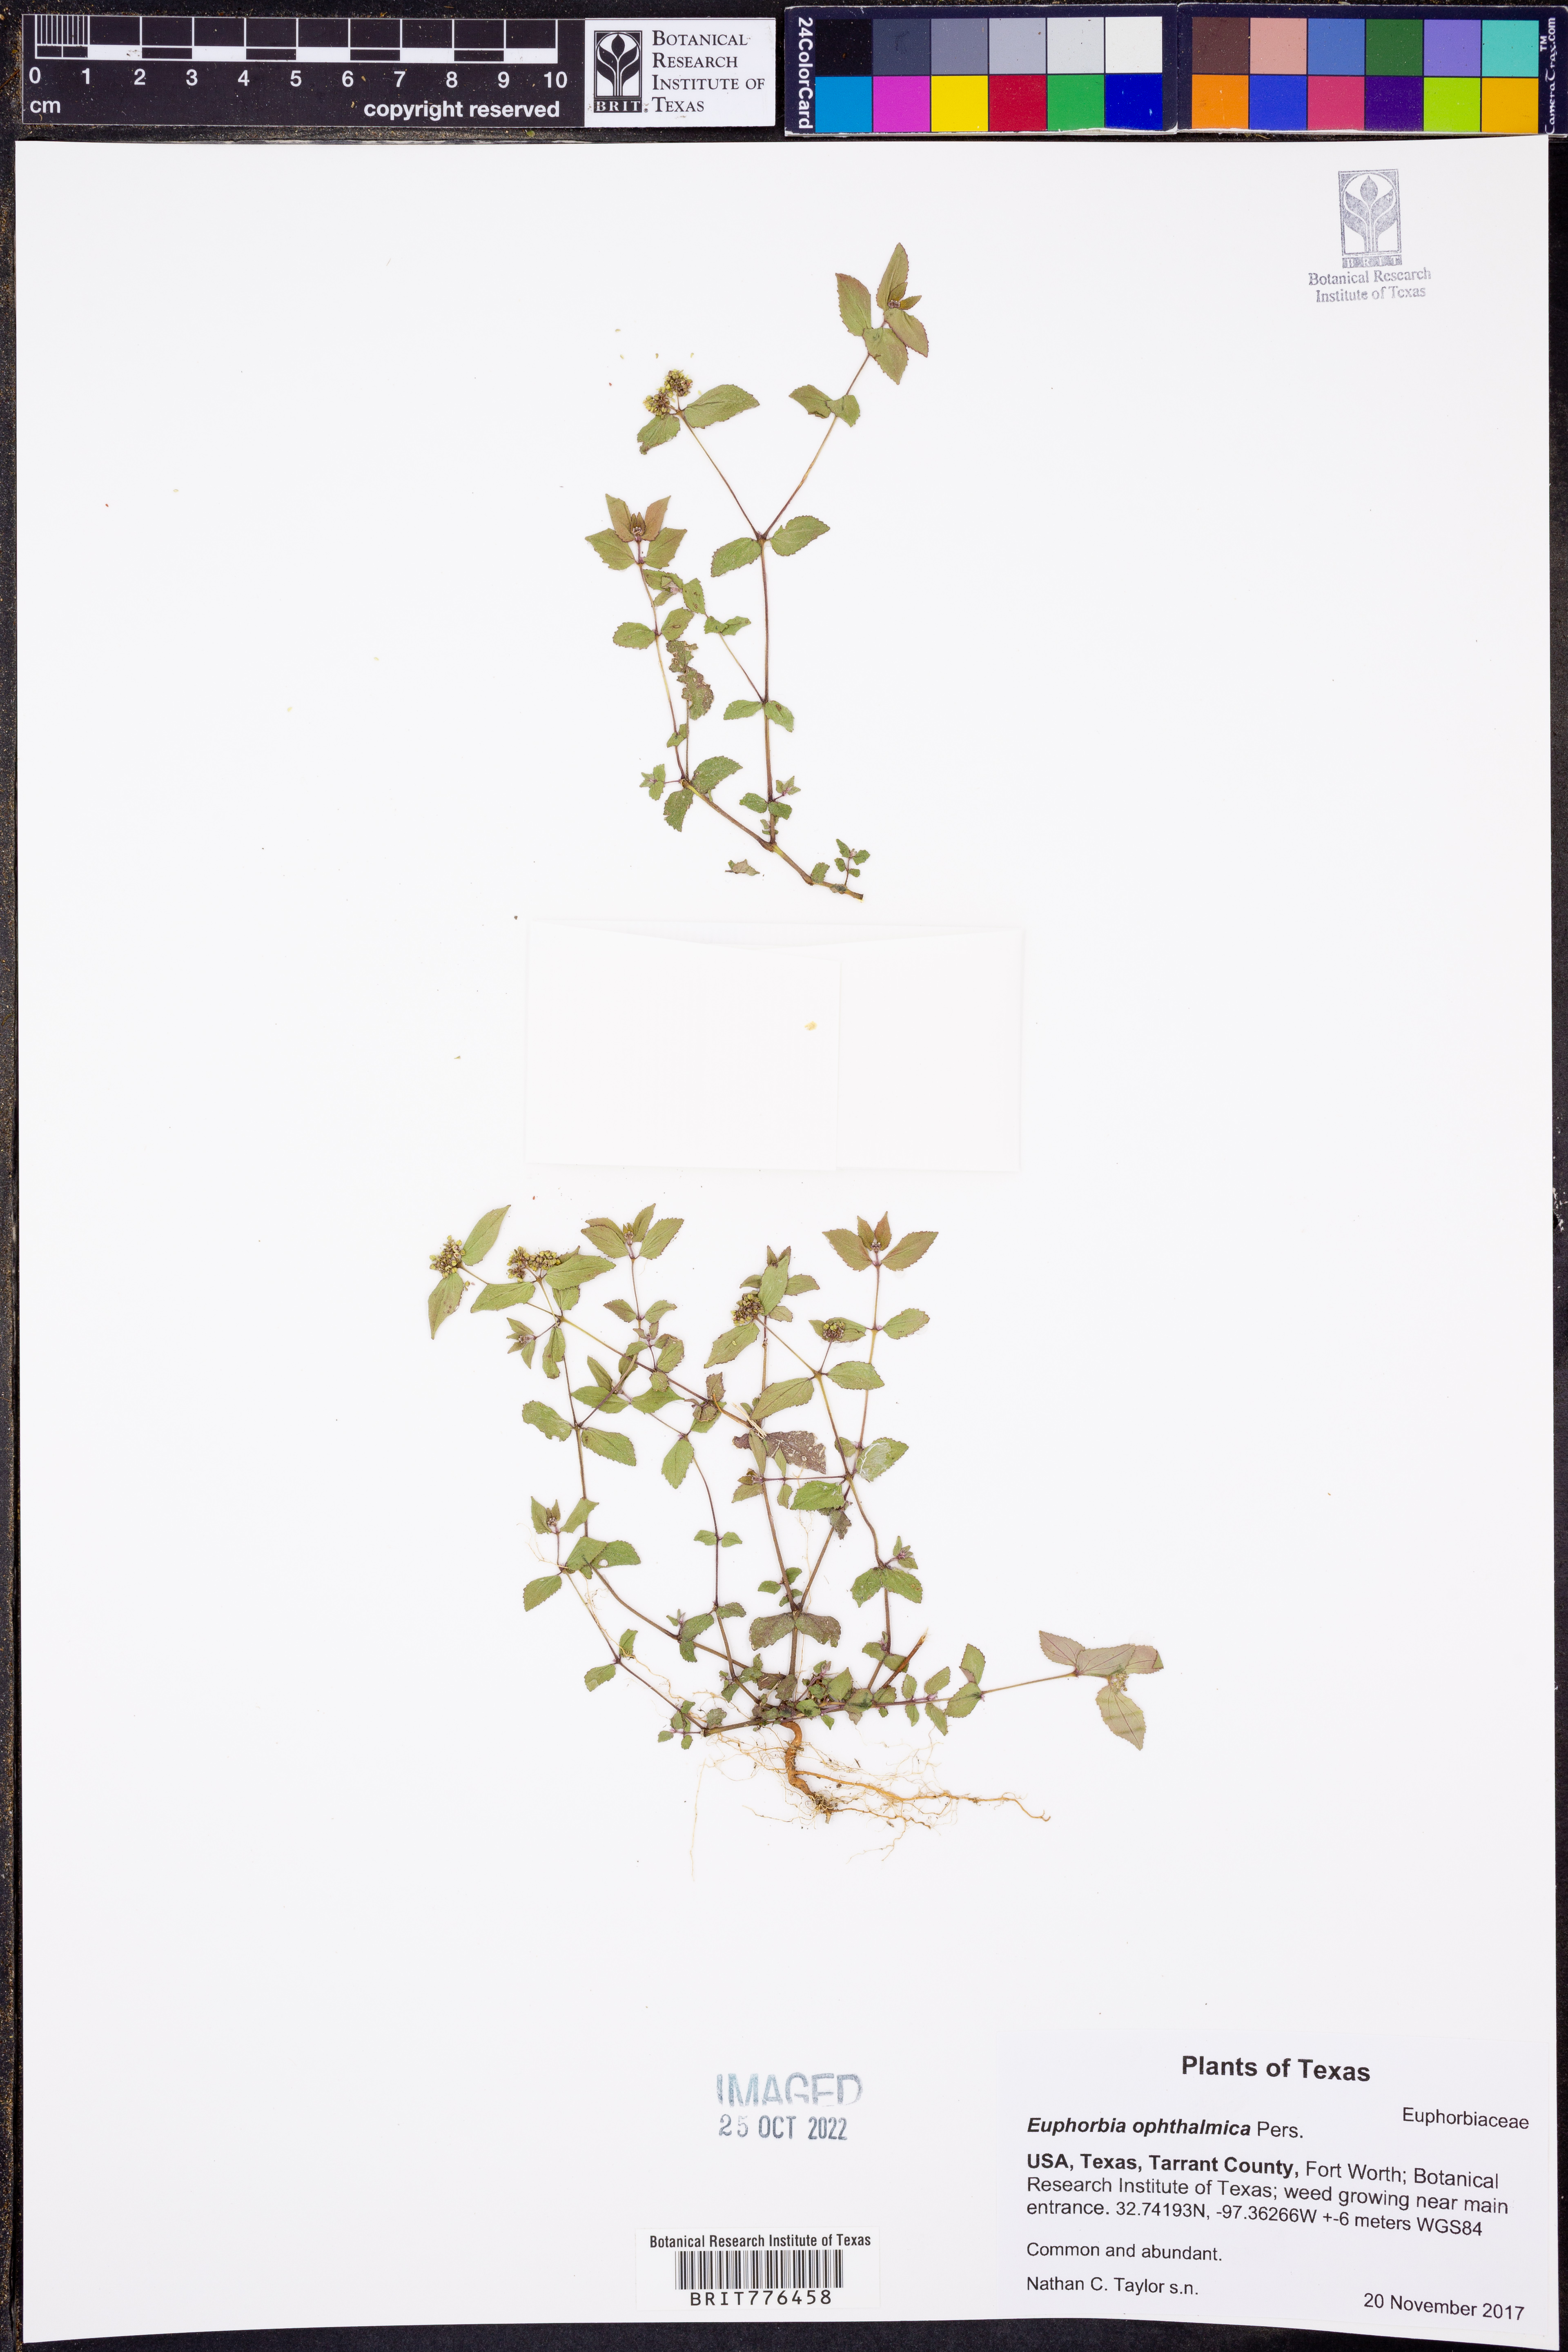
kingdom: Plantae
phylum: Tracheophyta
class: Magnoliopsida
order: Malpighiales
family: Euphorbiaceae
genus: Euphorbia
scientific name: Euphorbia ophthalmica
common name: Florida hammock sandmat
